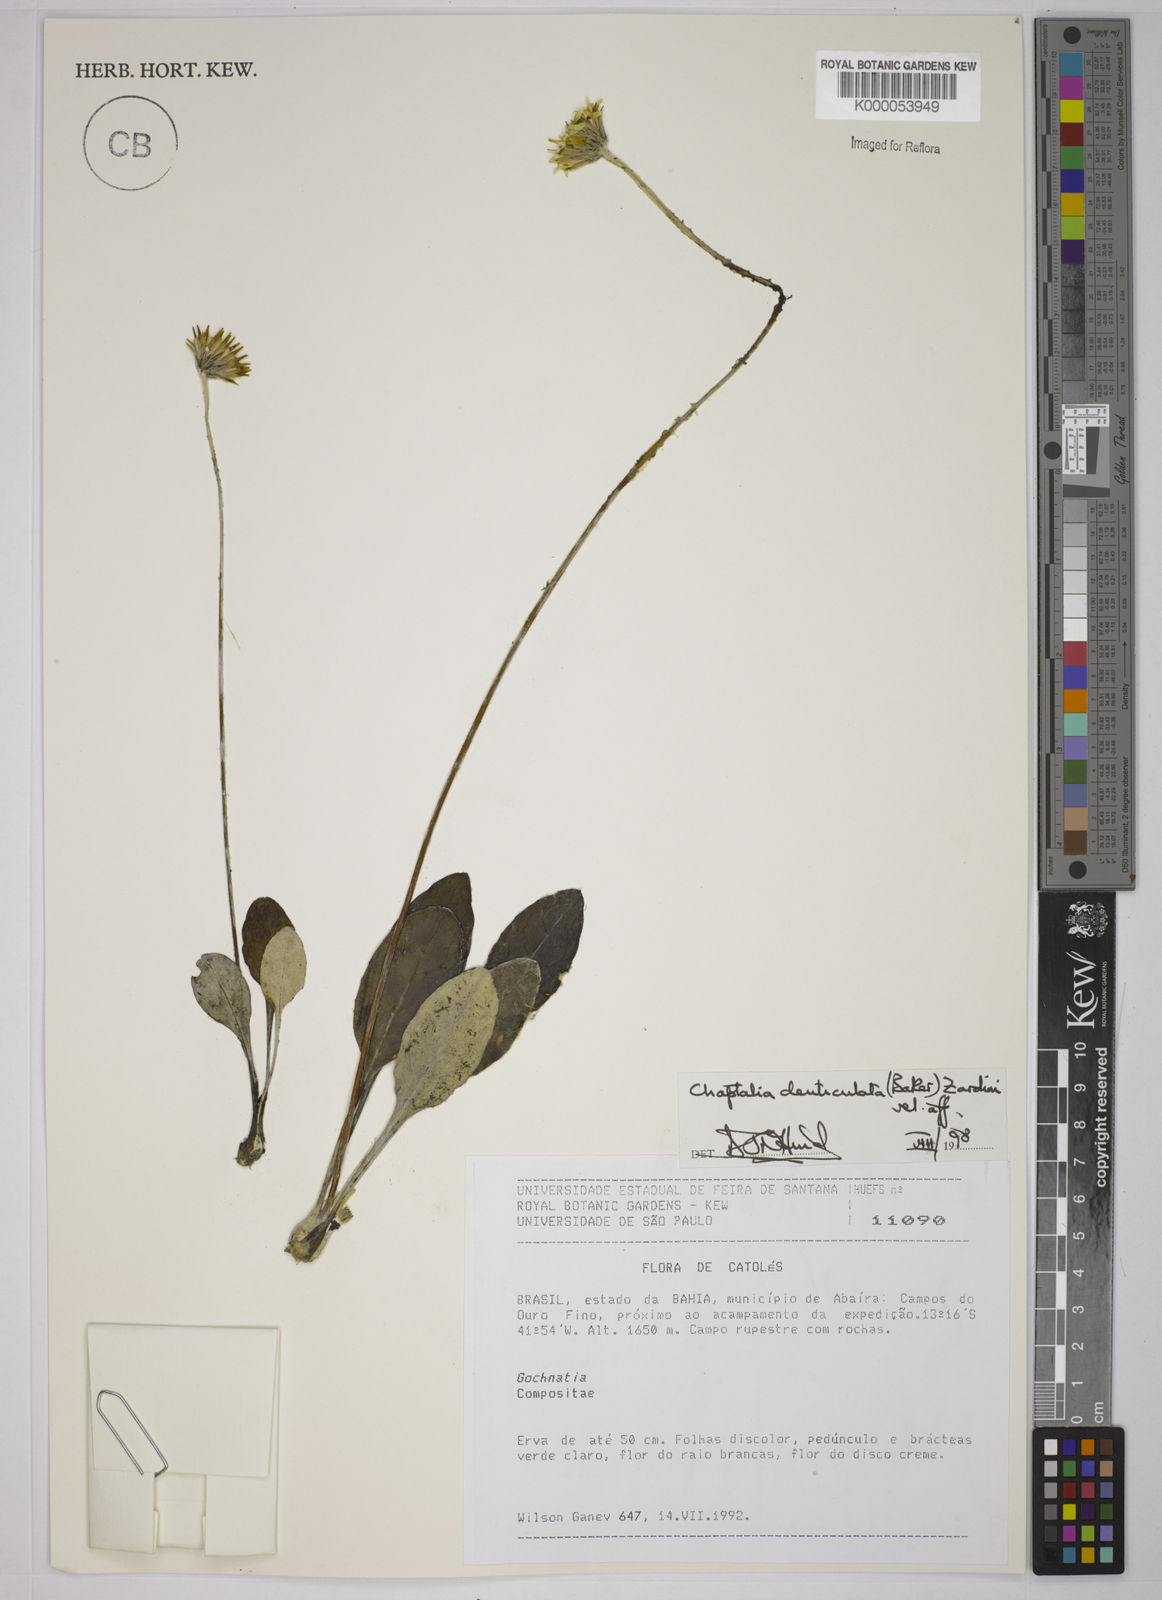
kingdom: Plantae
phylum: Tracheophyta
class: Magnoliopsida
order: Asterales
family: Asteraceae
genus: Chaptalia
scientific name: Chaptalia denticulata
